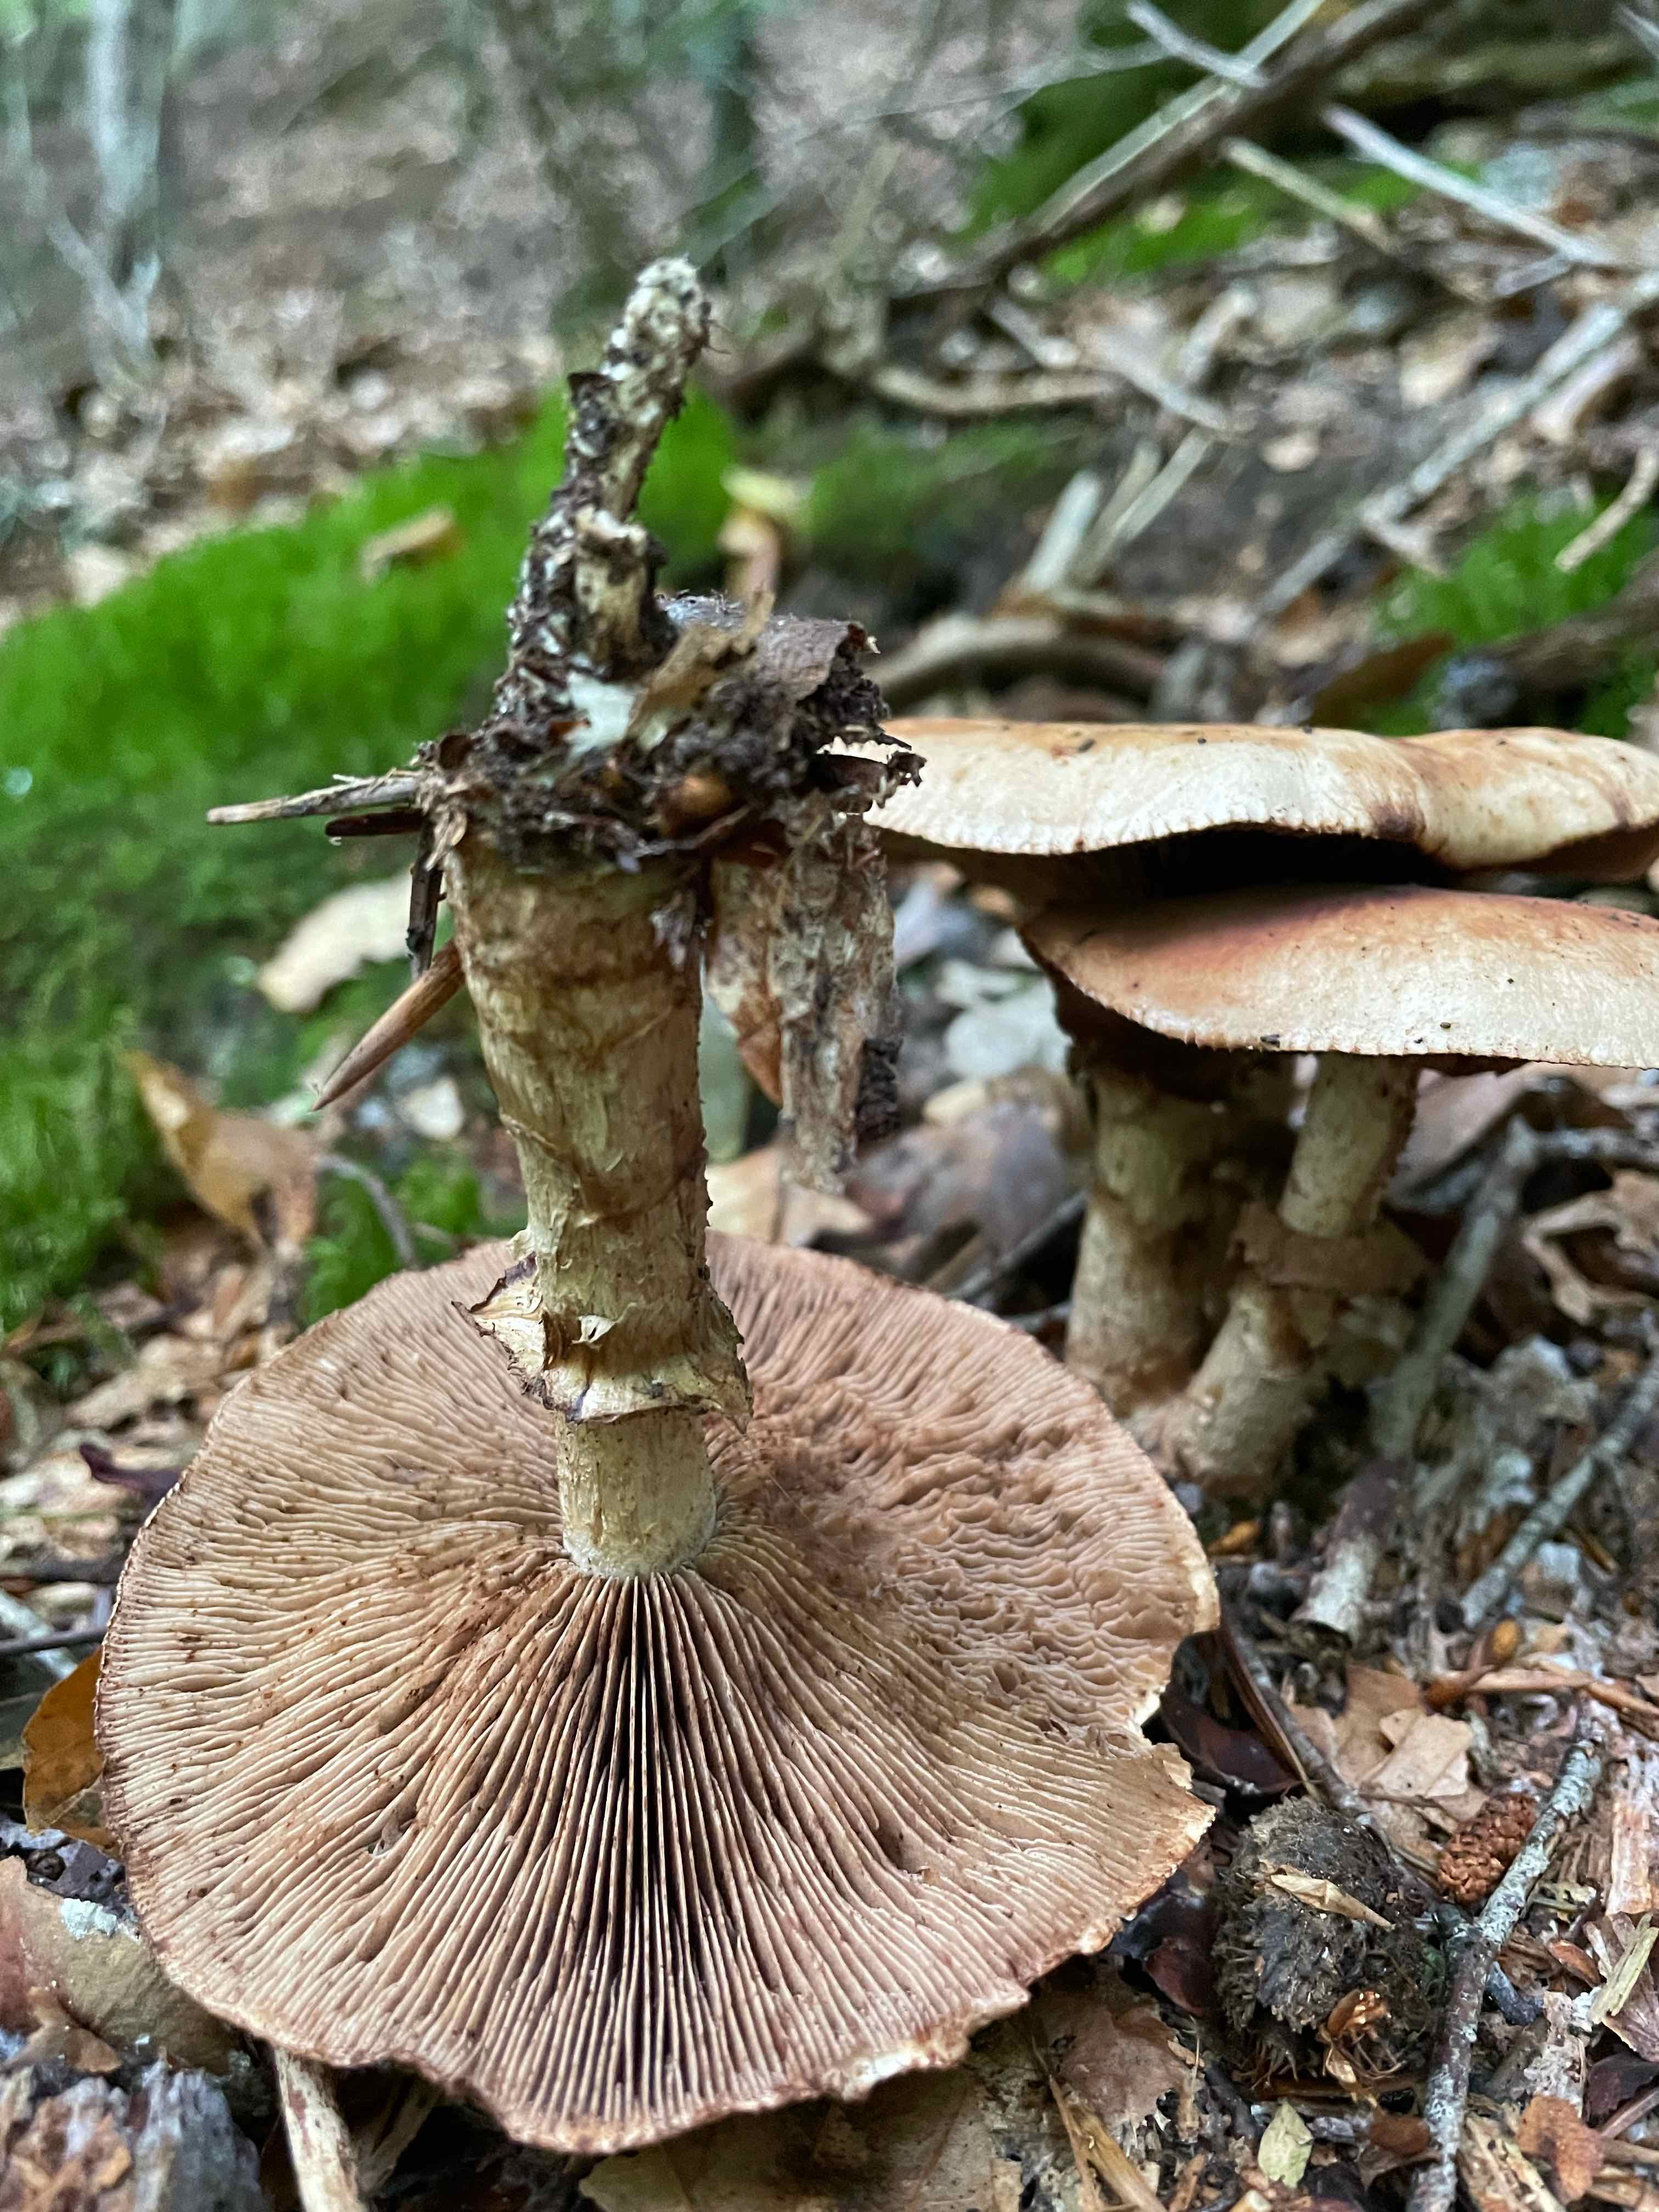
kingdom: Fungi
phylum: Basidiomycota
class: Agaricomycetes
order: Agaricales
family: Hymenogastraceae
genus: Hebeloma
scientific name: Hebeloma radicosum
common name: pælerods-tåreblad
